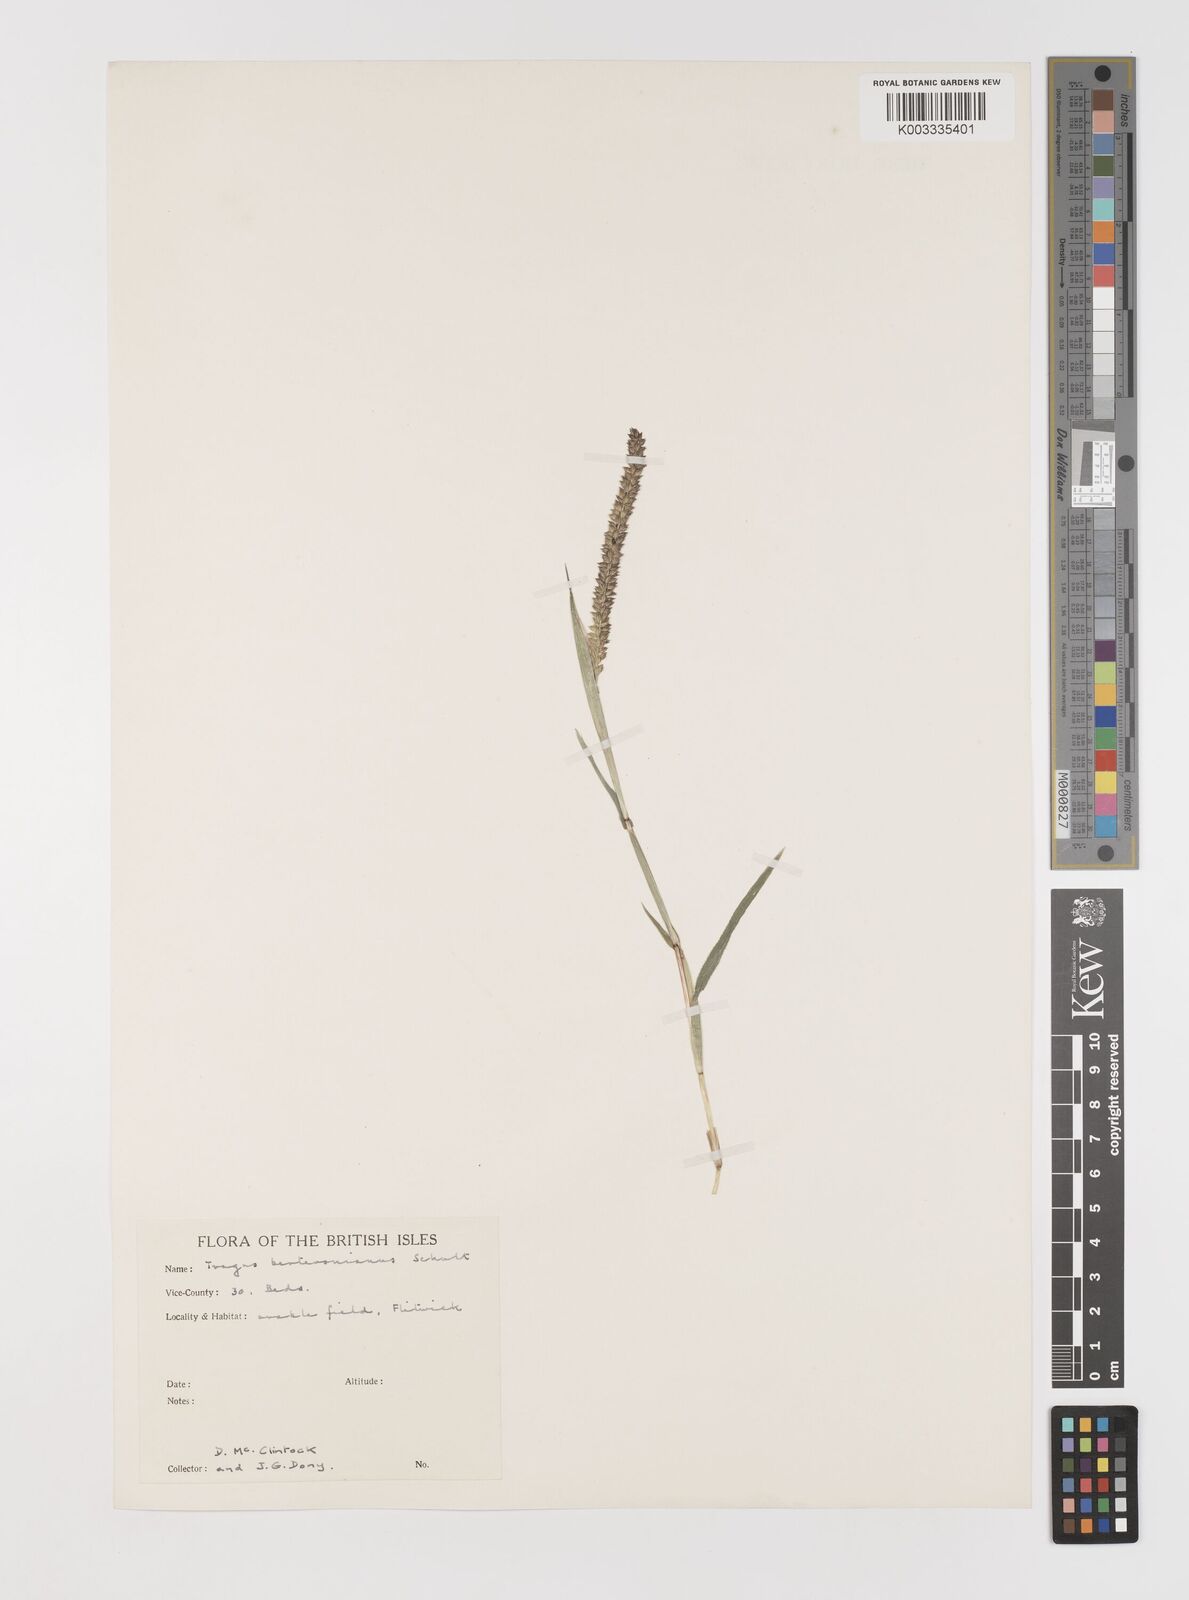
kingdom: Plantae
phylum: Tracheophyta
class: Liliopsida
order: Poales
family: Poaceae
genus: Tragus
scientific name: Tragus berteronianus
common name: African bur-grass
